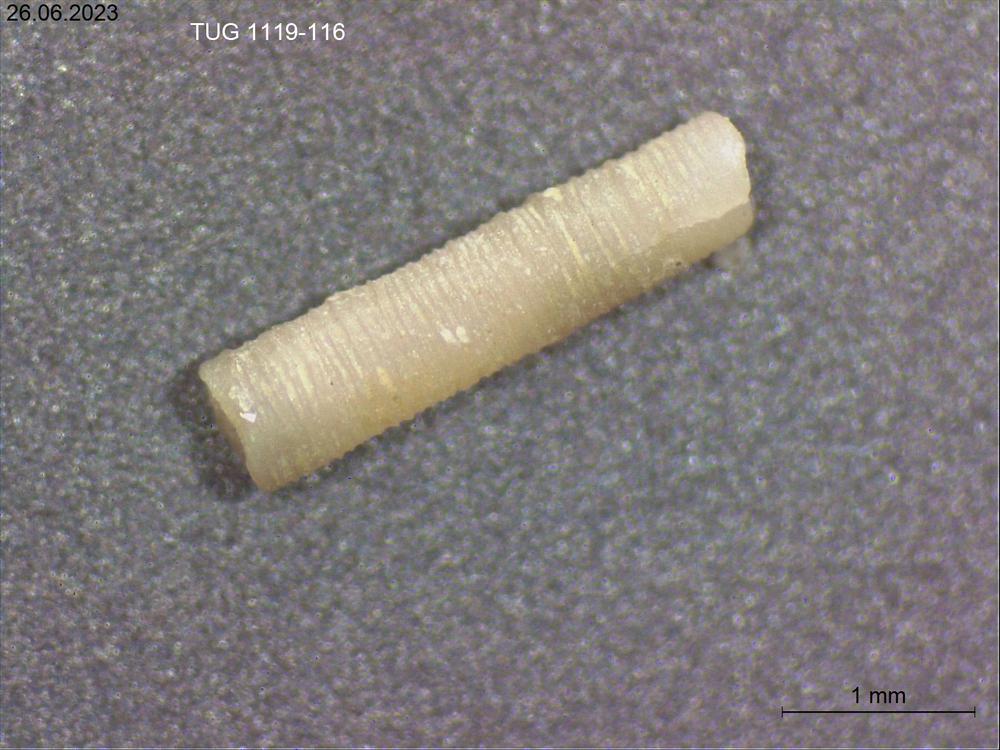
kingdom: Animalia
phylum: Mollusca
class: Cricoconarida
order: Tentaculitida
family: Tentaculitidae
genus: Tentaculites
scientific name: Tentaculites
